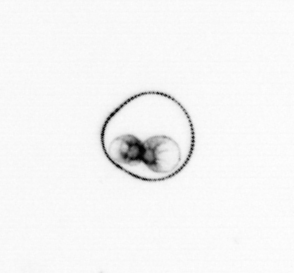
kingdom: Chromista
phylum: Myzozoa
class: Dinophyceae
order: Noctilucales
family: Noctilucaceae
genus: Noctiluca
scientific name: Noctiluca scintillans
